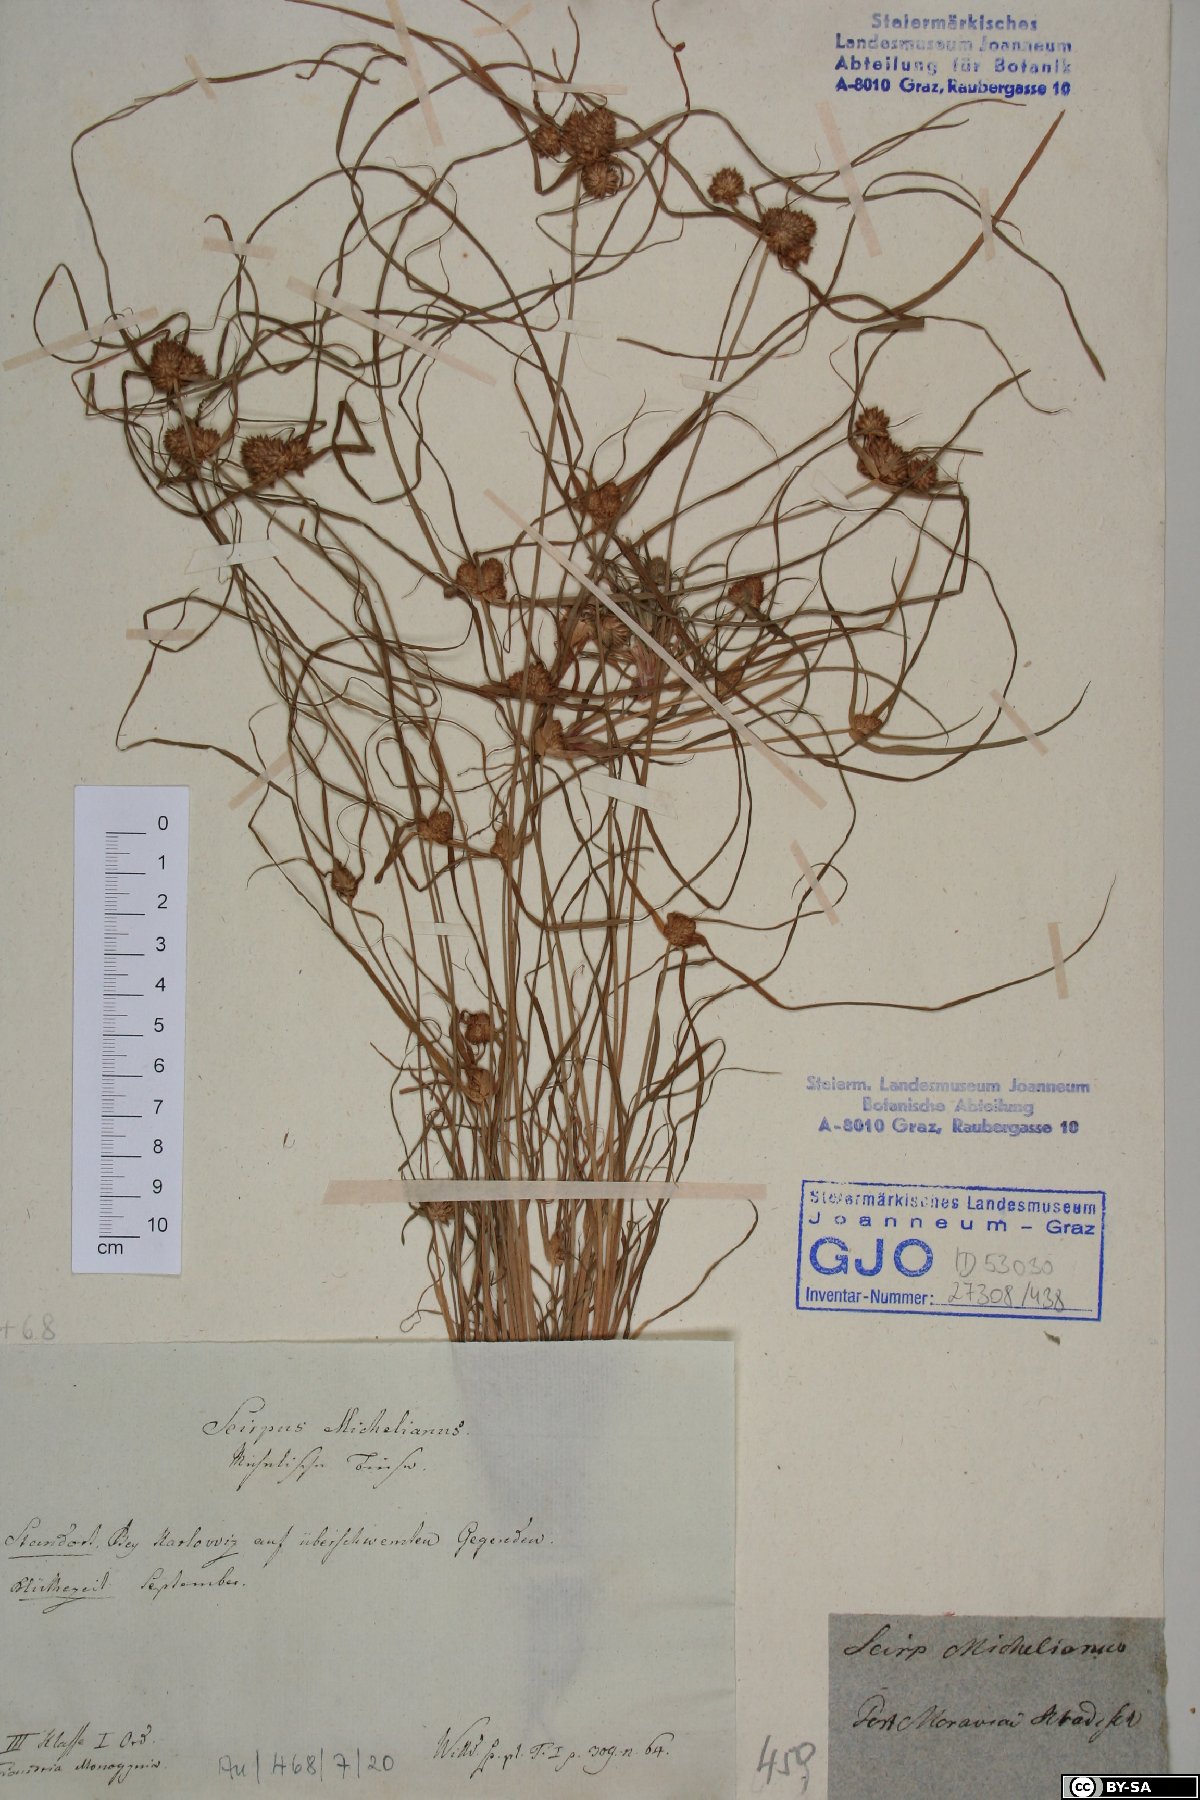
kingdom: Plantae
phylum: Tracheophyta
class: Liliopsida
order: Poales
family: Cyperaceae
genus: Cyperus
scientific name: Cyperus michelianus
